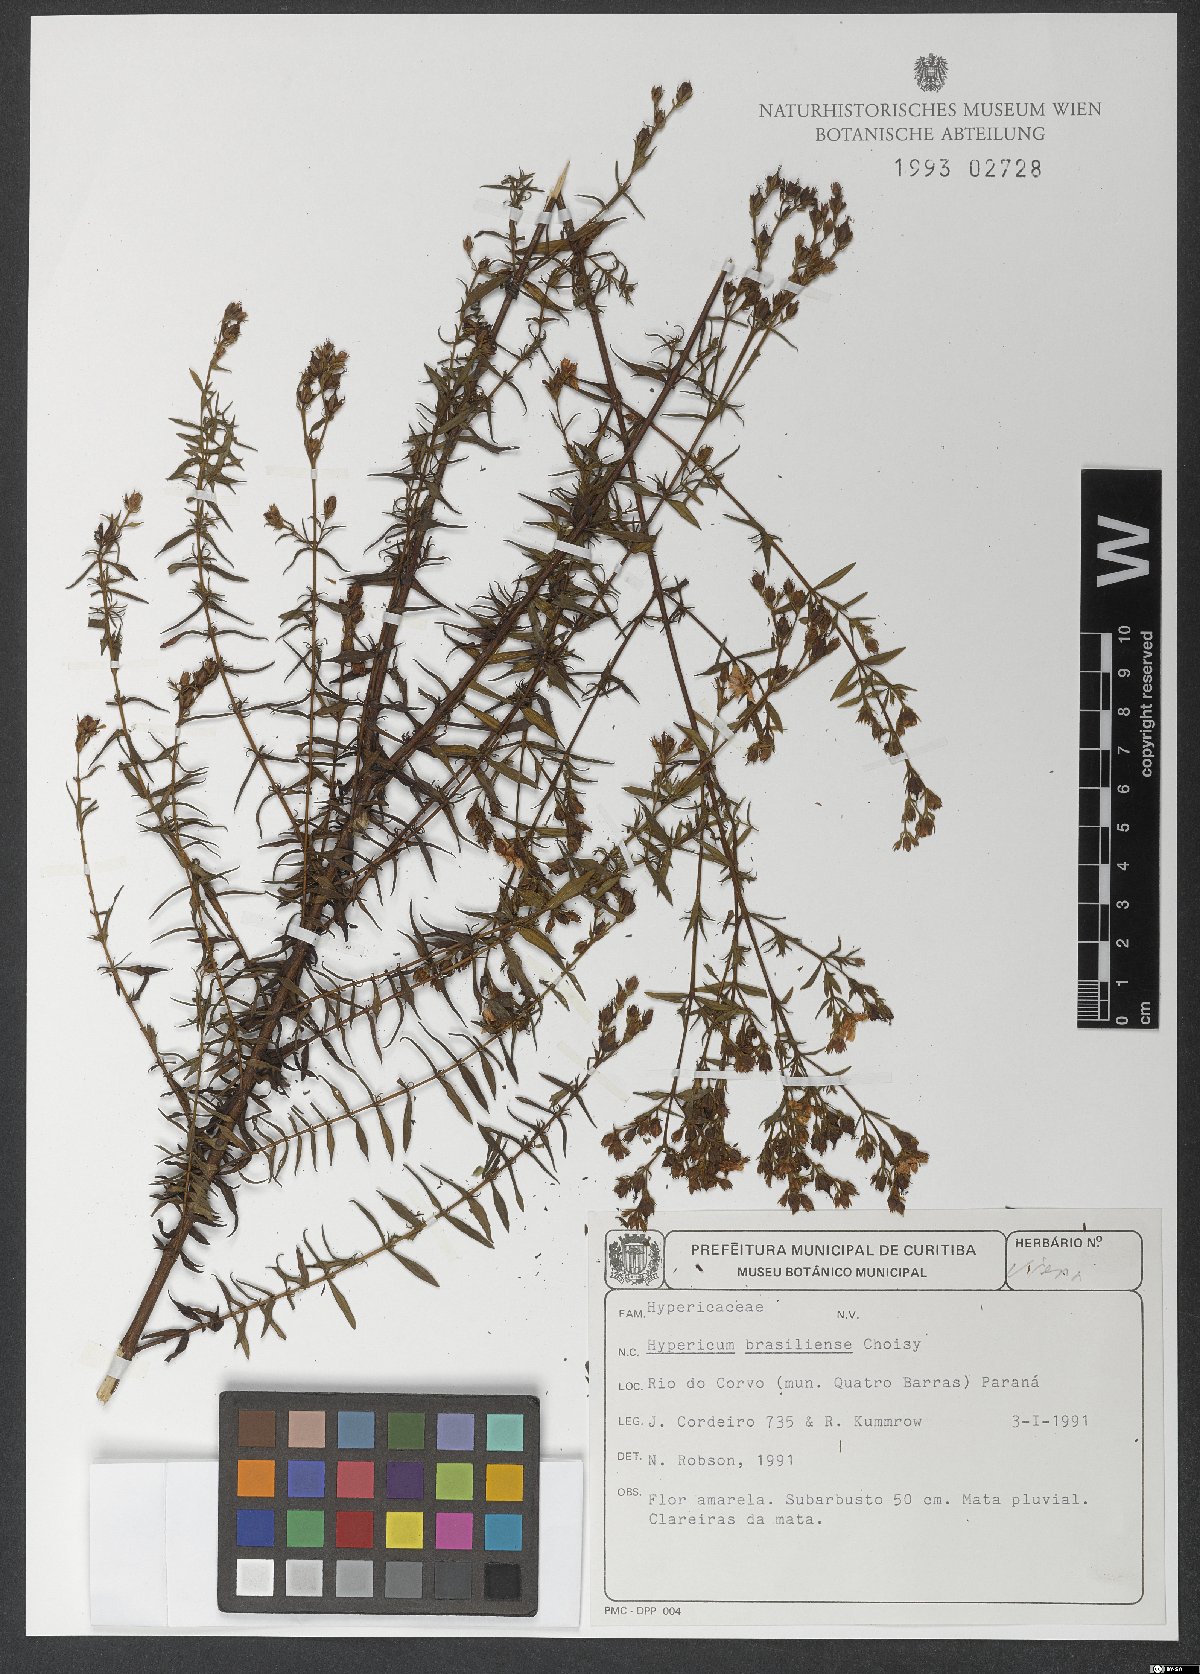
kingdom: Plantae
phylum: Tracheophyta
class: Magnoliopsida
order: Malpighiales
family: Hypericaceae
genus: Hypericum
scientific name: Hypericum brasiliense
